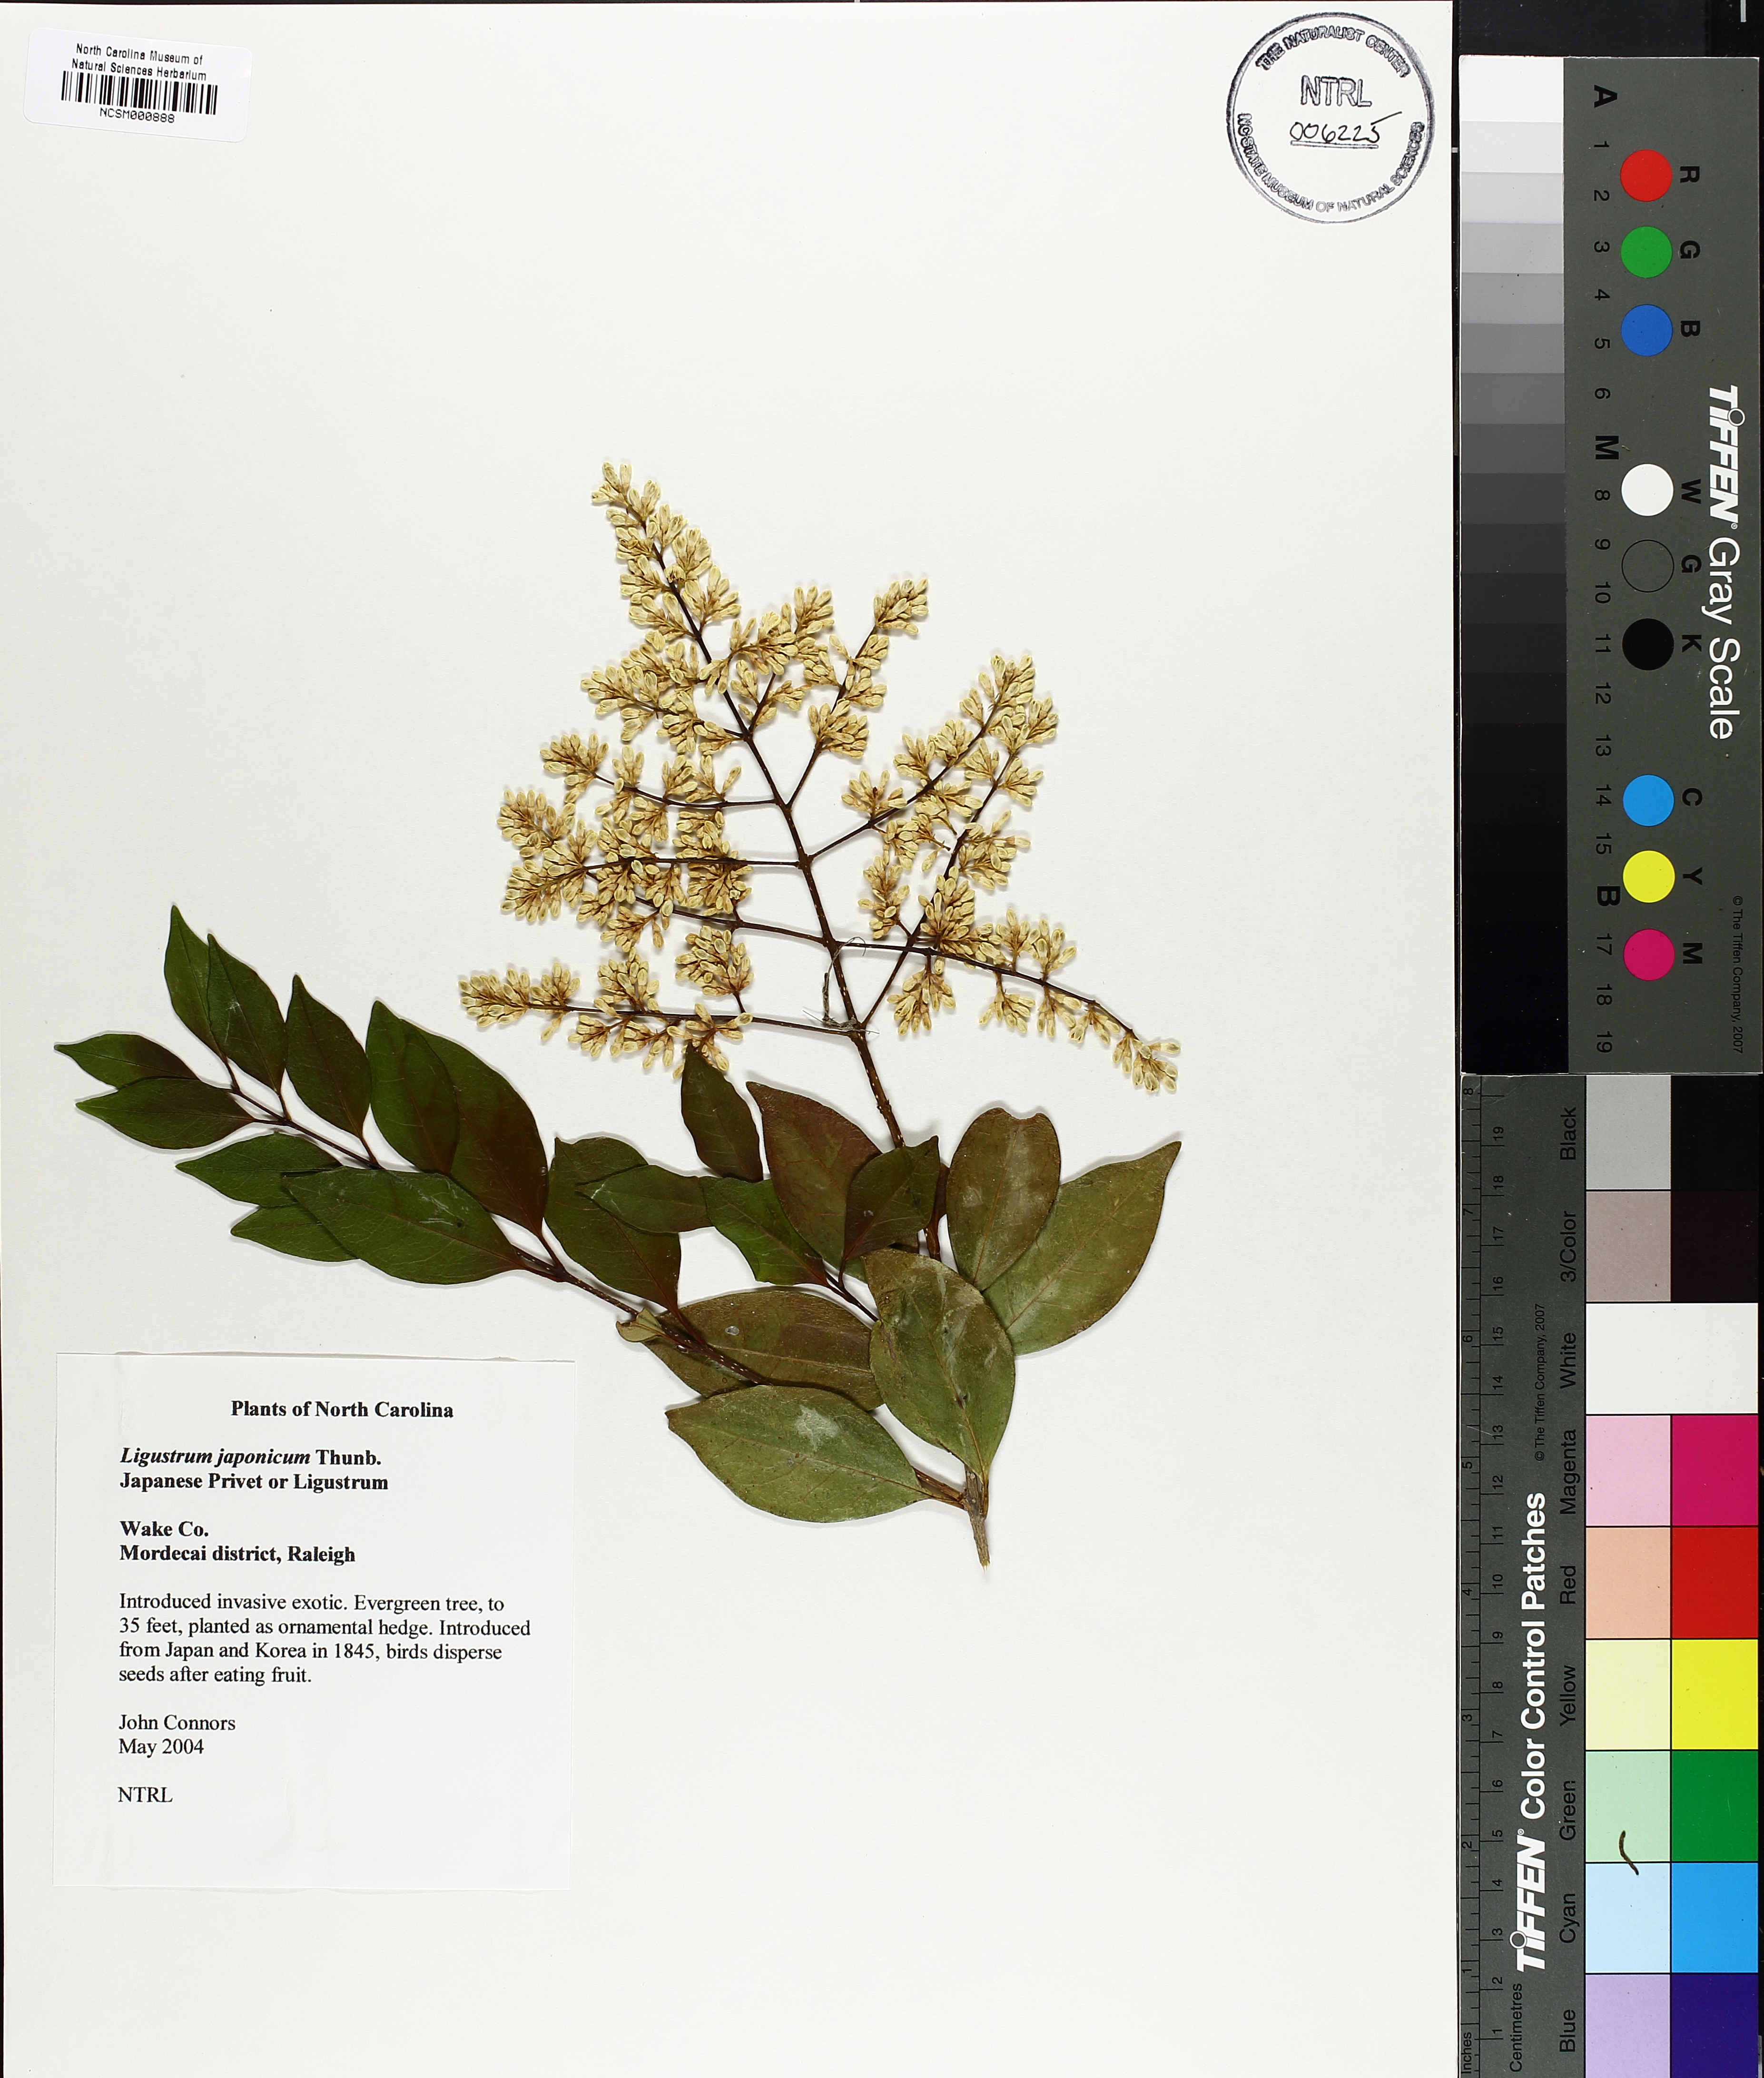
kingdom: Plantae
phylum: Tracheophyta
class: Magnoliopsida
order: Lamiales
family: Oleaceae
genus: Ligustrum
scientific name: Ligustrum japonicum
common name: Japanese privet
